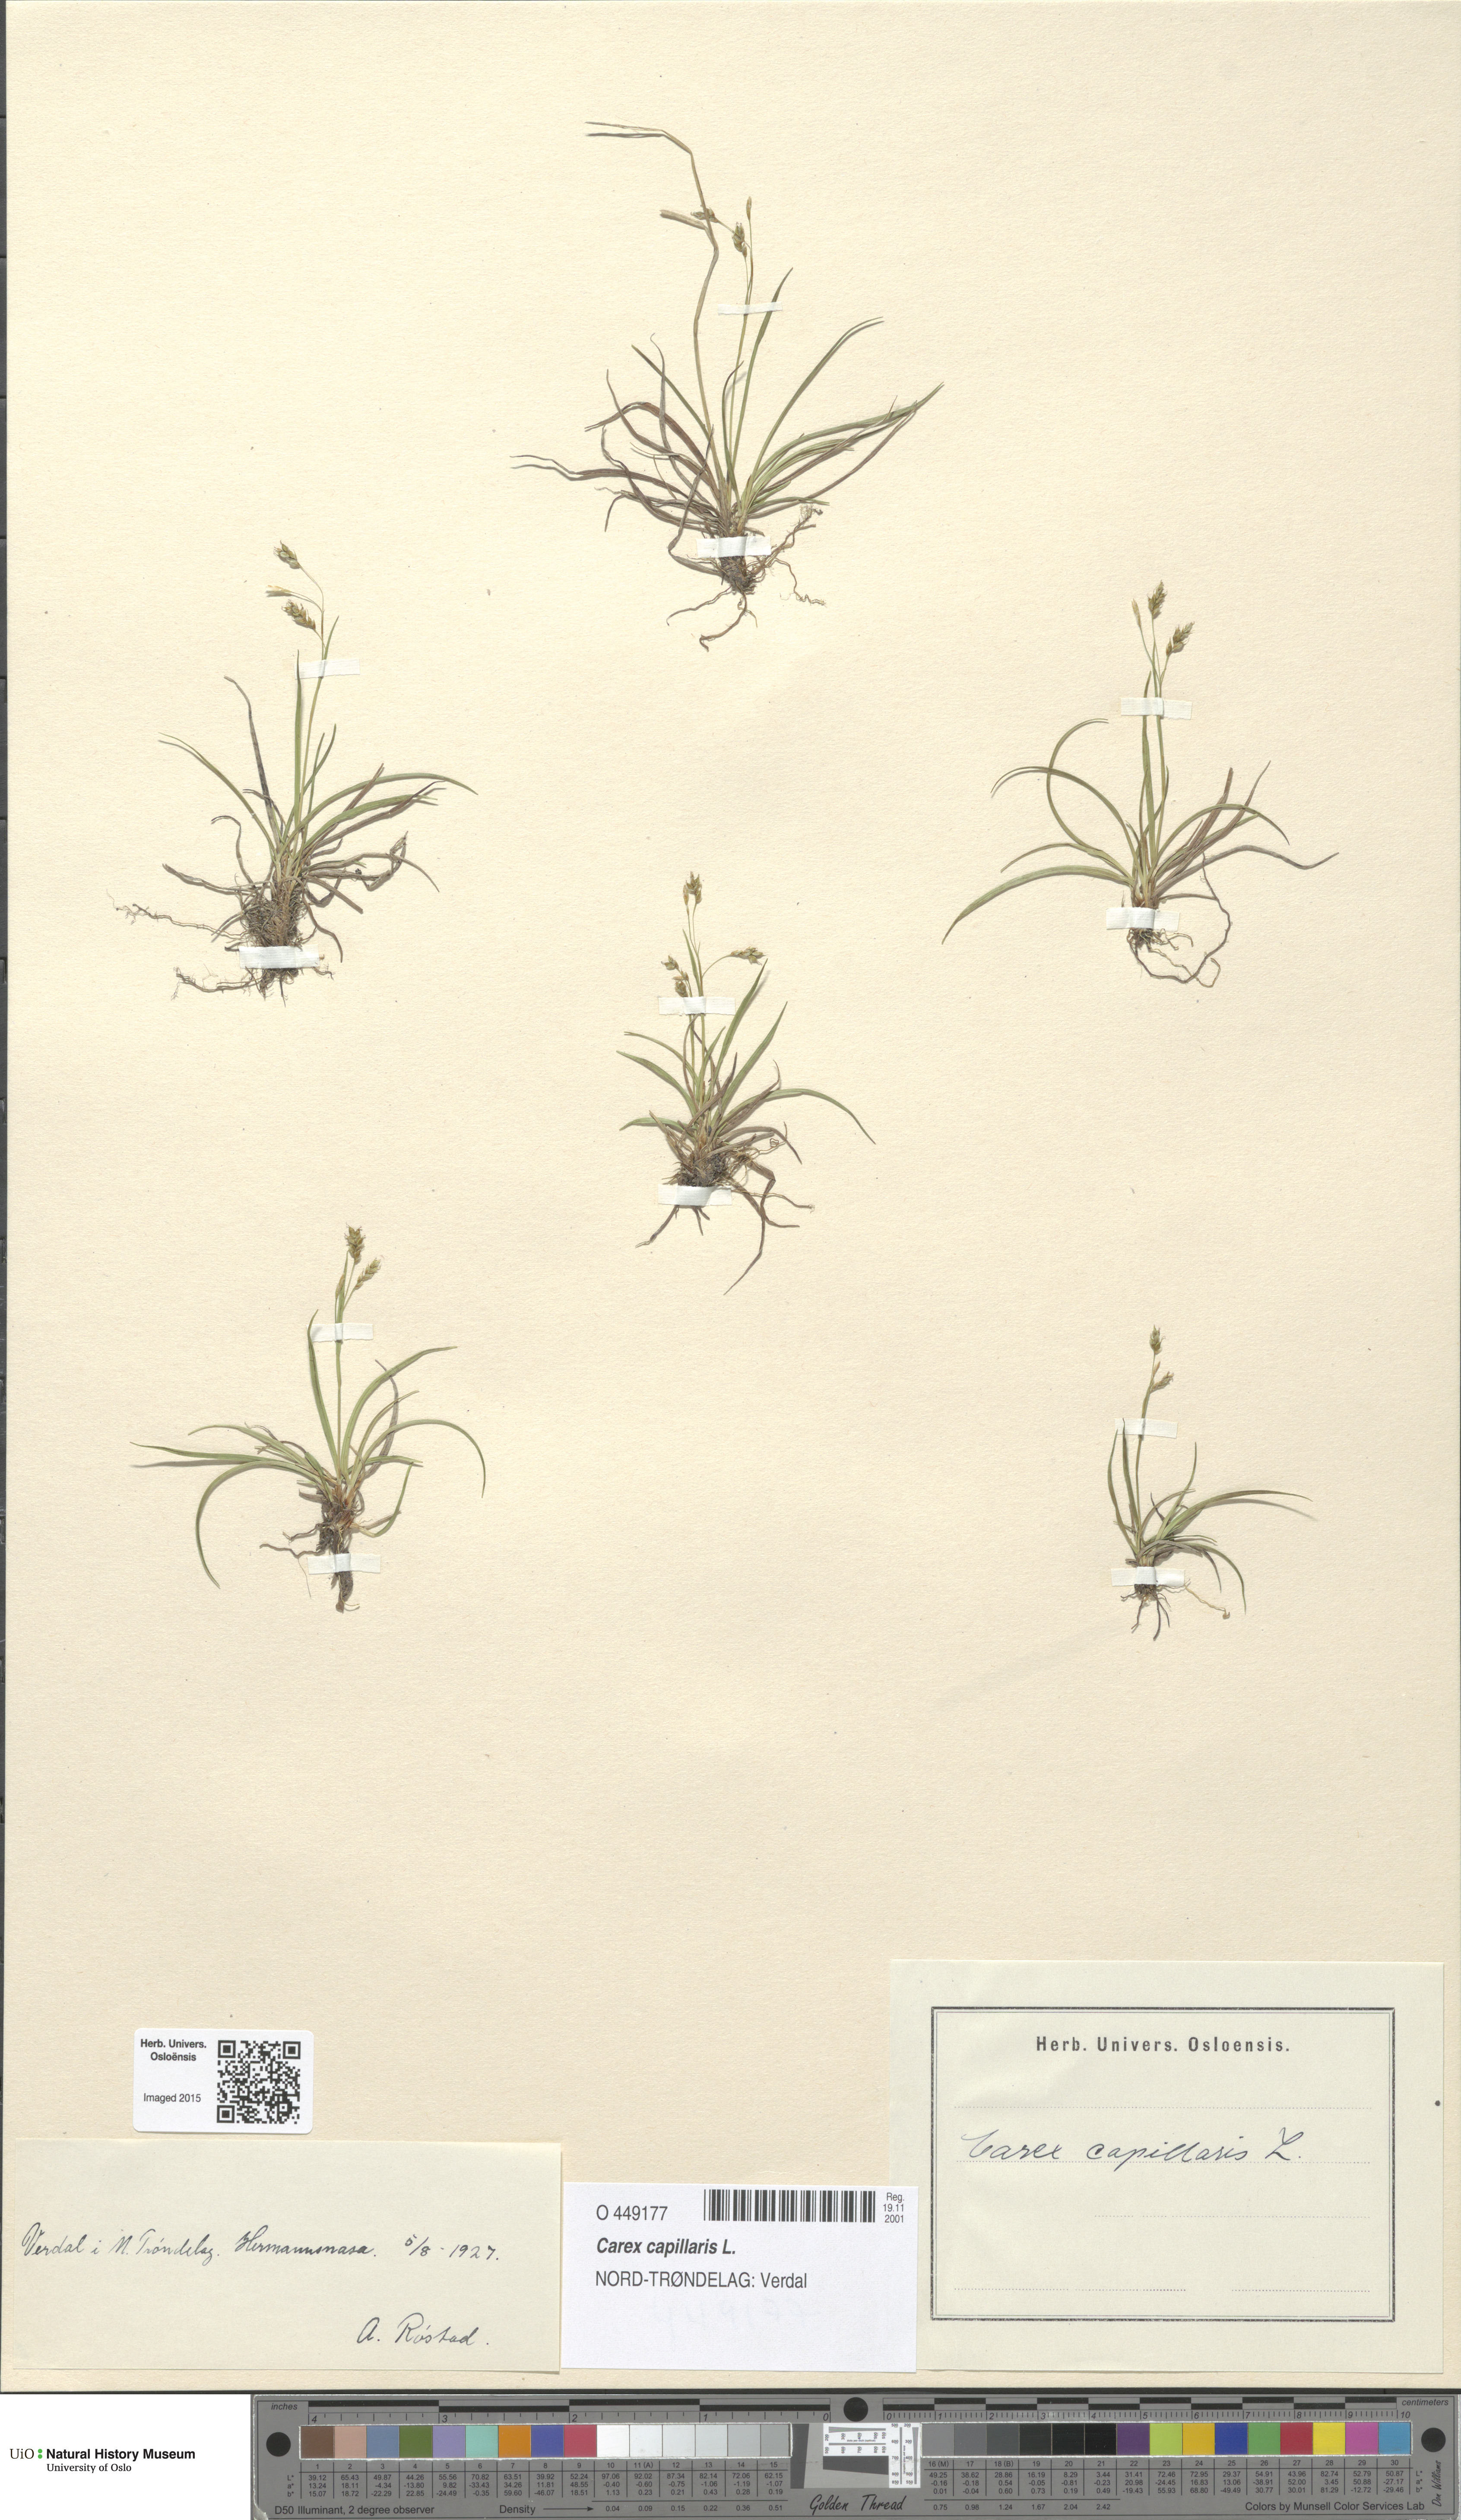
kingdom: Plantae
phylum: Tracheophyta
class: Liliopsida
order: Poales
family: Cyperaceae
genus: Carex
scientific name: Carex capillaris
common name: Hair sedge
